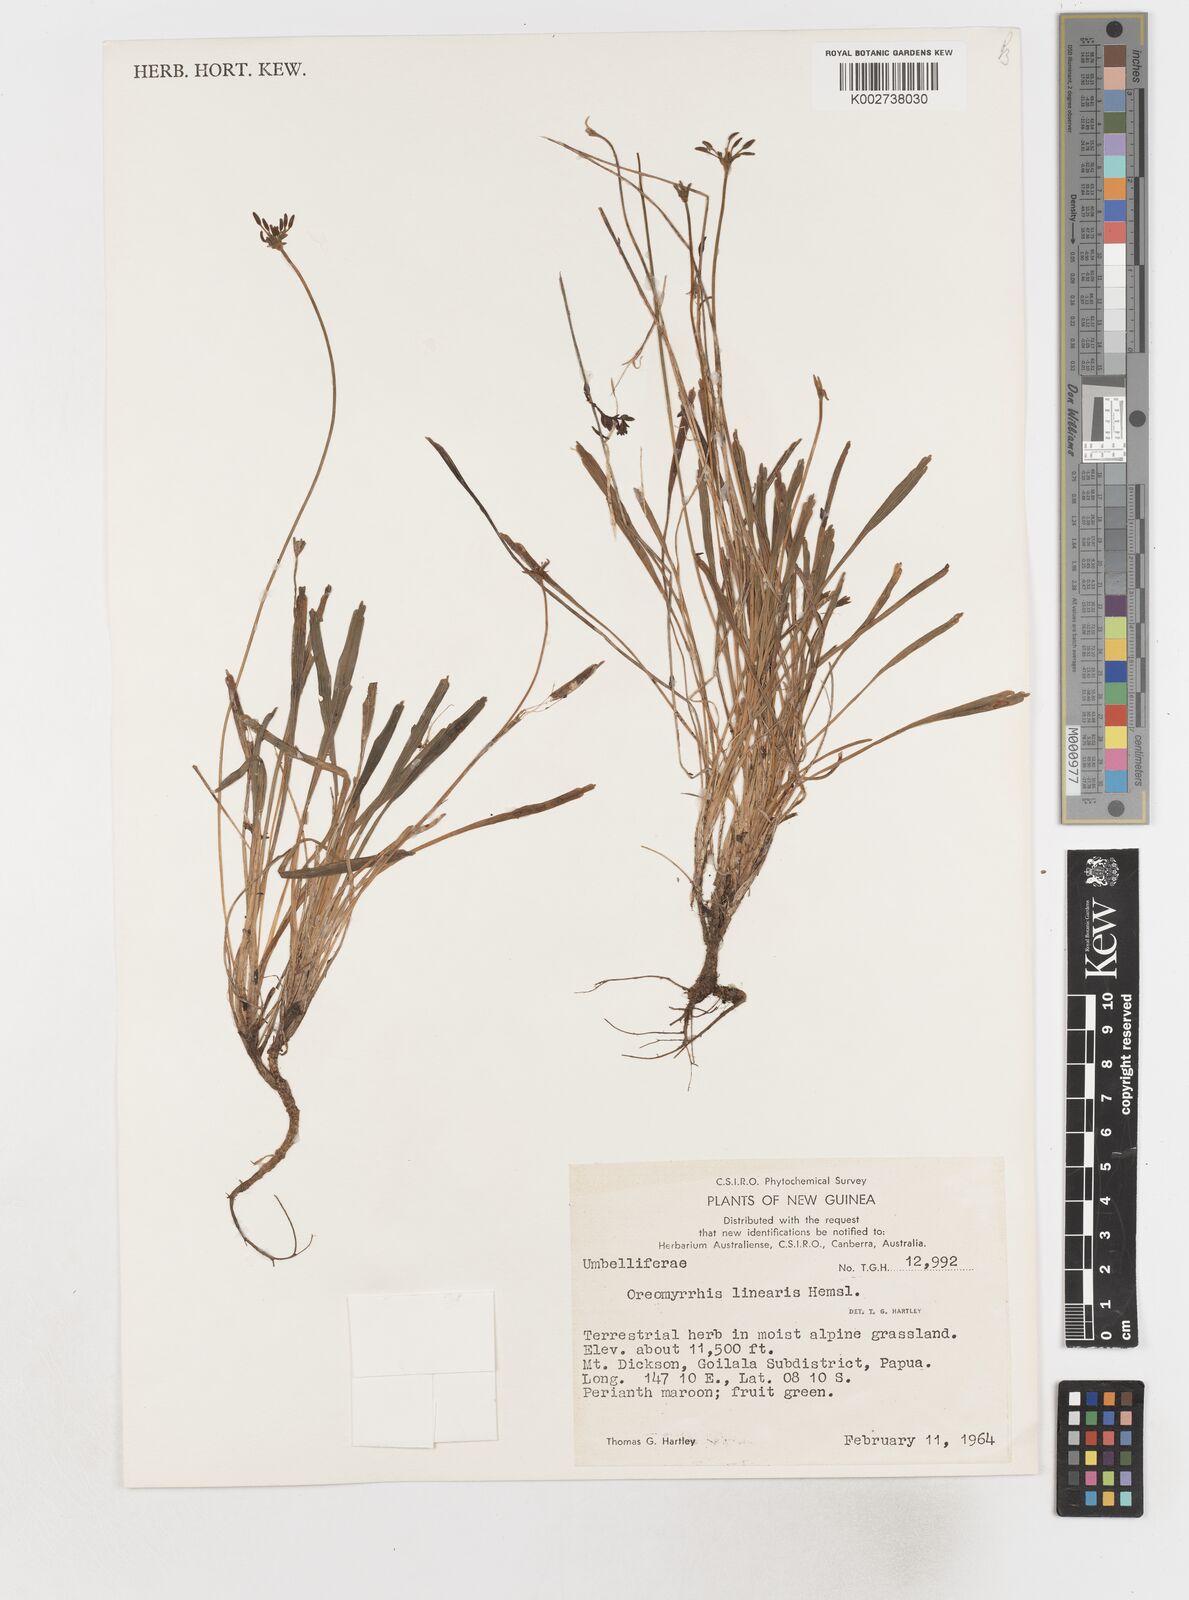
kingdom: Plantae
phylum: Tracheophyta
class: Magnoliopsida
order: Apiales
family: Apiaceae
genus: Chaerophyllum
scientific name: Chaerophyllum lineare
